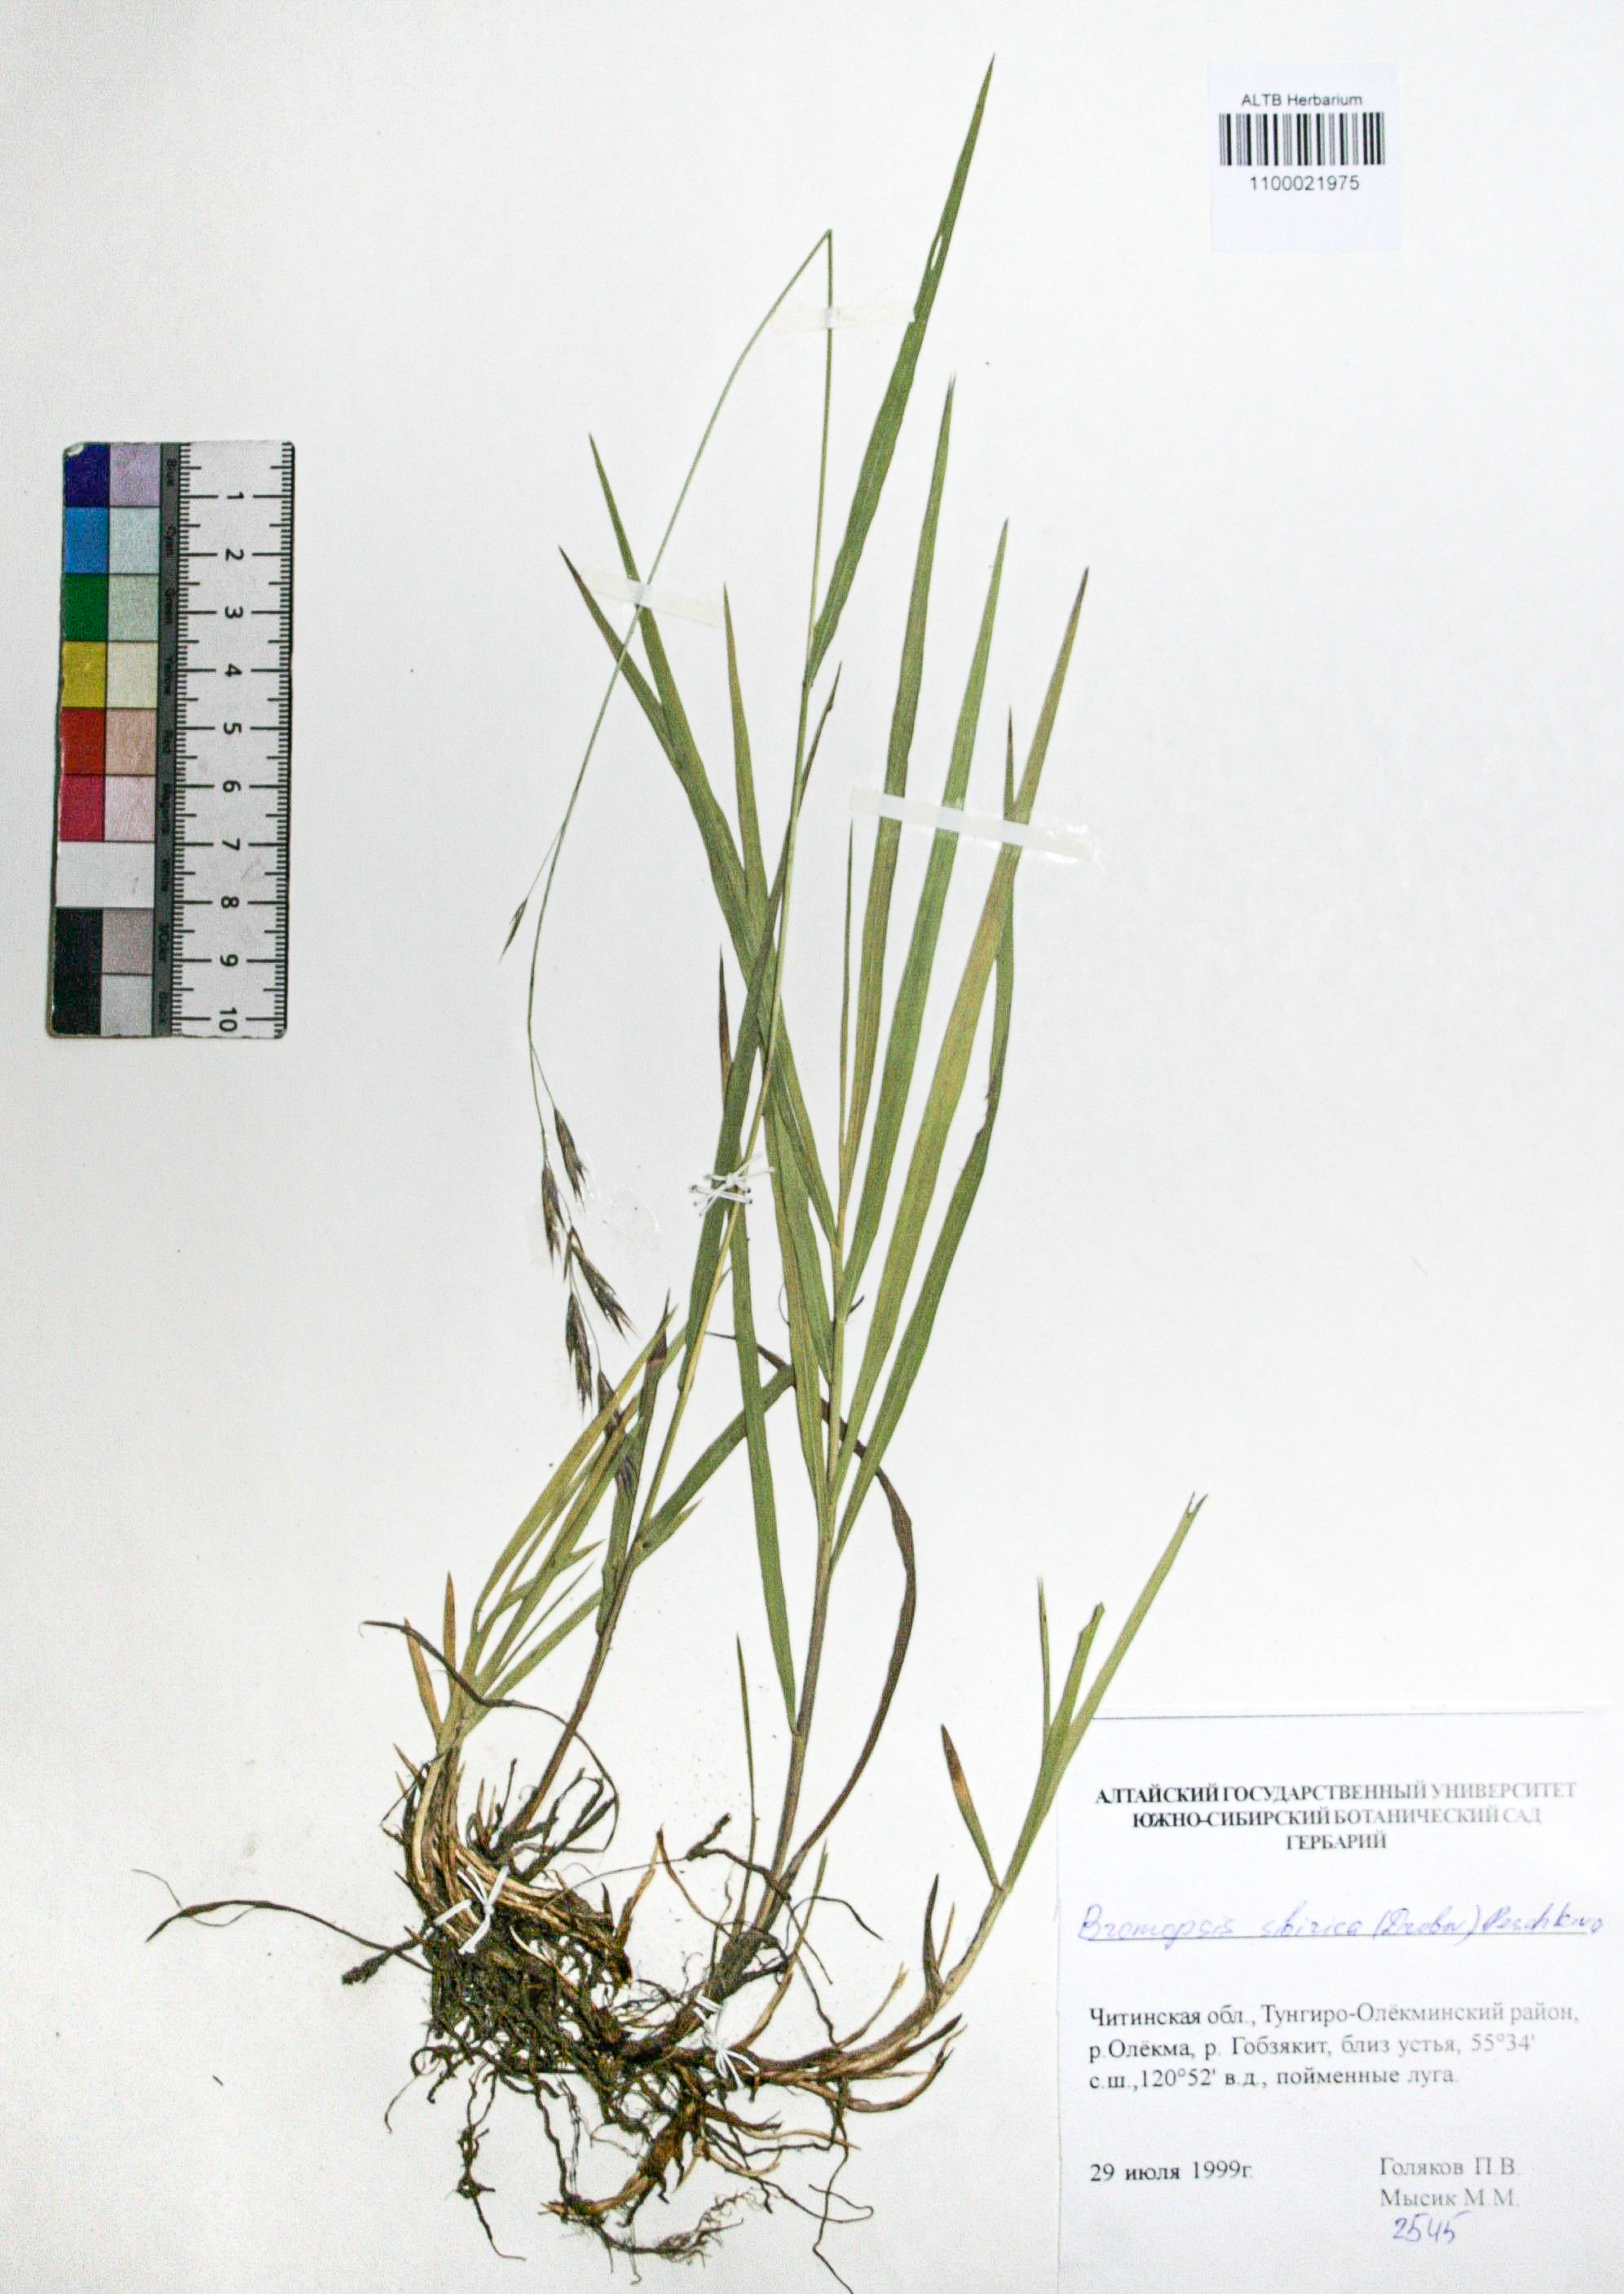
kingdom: Plantae
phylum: Tracheophyta
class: Liliopsida
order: Poales
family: Poaceae
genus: Bromus
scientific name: Bromus pumpellianus
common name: Pumpelly's brome
